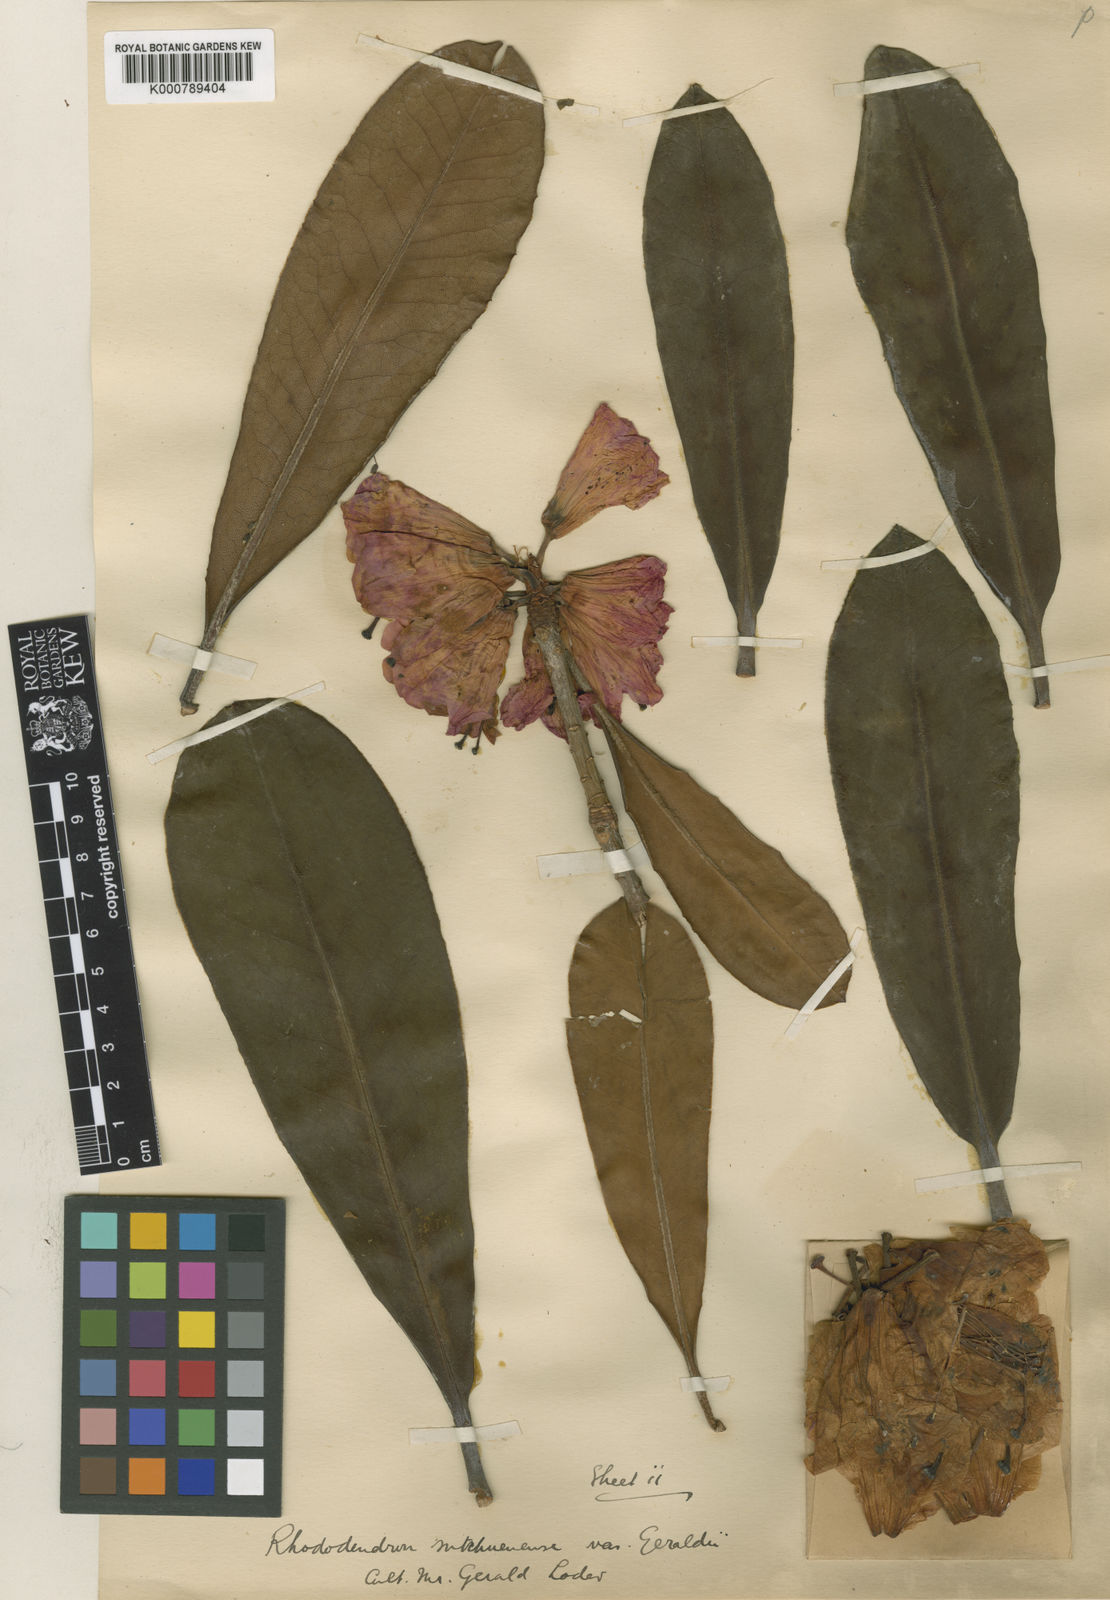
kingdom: Plantae
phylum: Tracheophyta
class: Magnoliopsida
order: Ericales
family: Ericaceae
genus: Rhododendron
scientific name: Rhododendron
